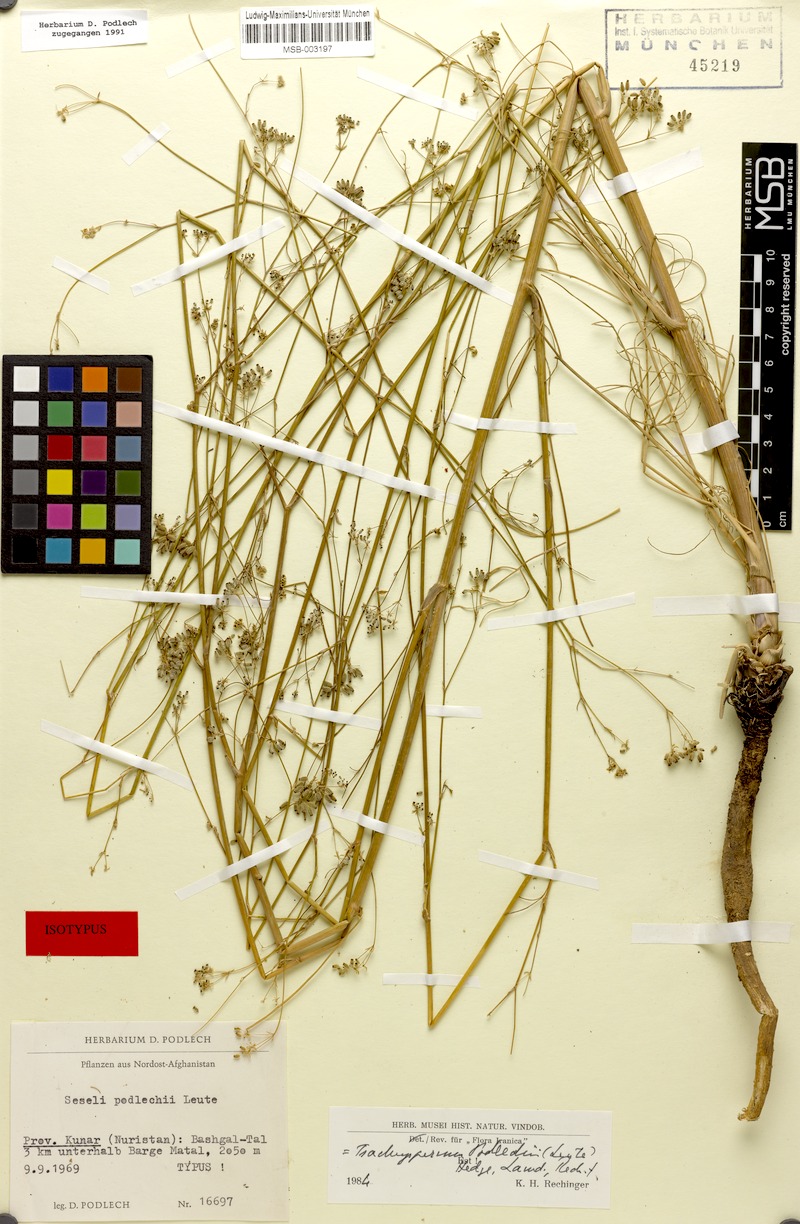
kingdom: Plantae
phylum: Tracheophyta
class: Magnoliopsida
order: Apiales
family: Apiaceae
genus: Trachyspermum
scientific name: Trachyspermum podlechii
